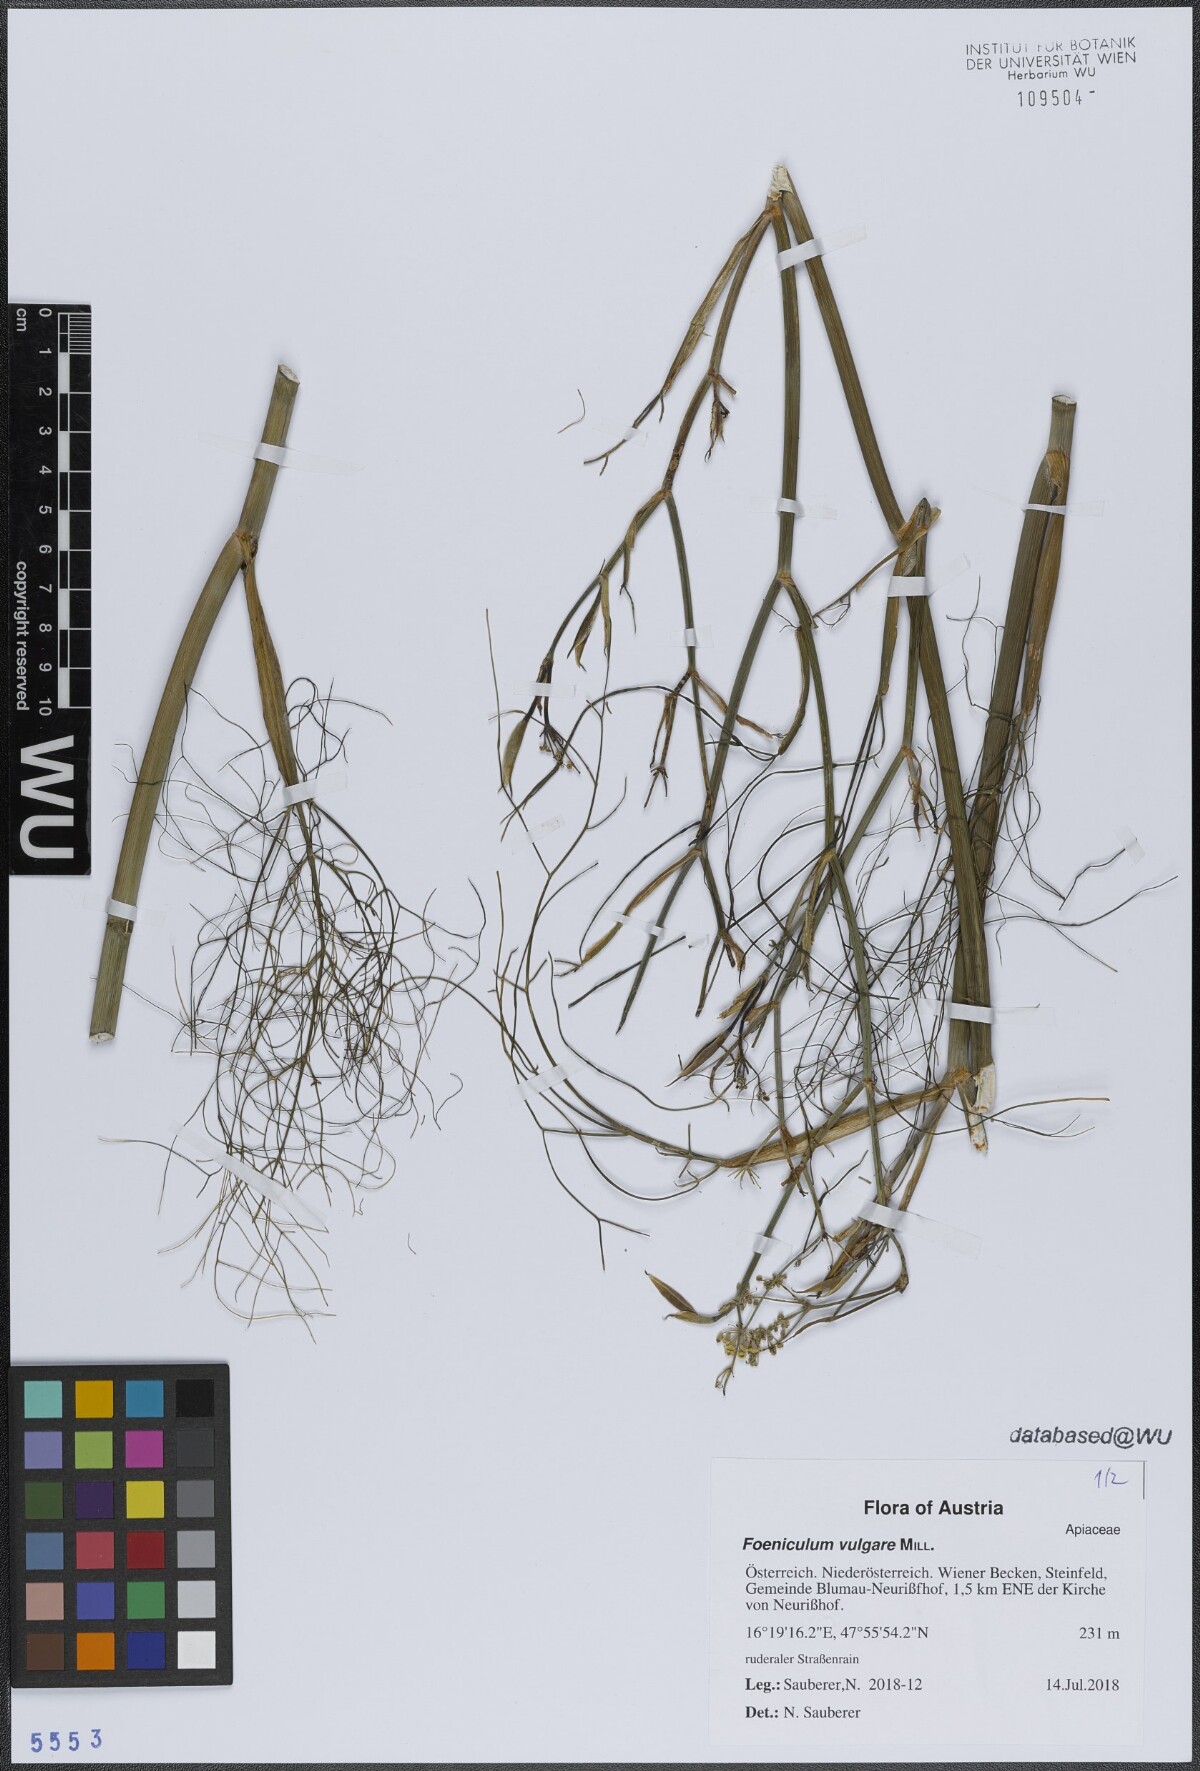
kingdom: Plantae
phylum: Tracheophyta
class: Magnoliopsida
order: Apiales
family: Apiaceae
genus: Foeniculum
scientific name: Foeniculum vulgare
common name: Fennel
